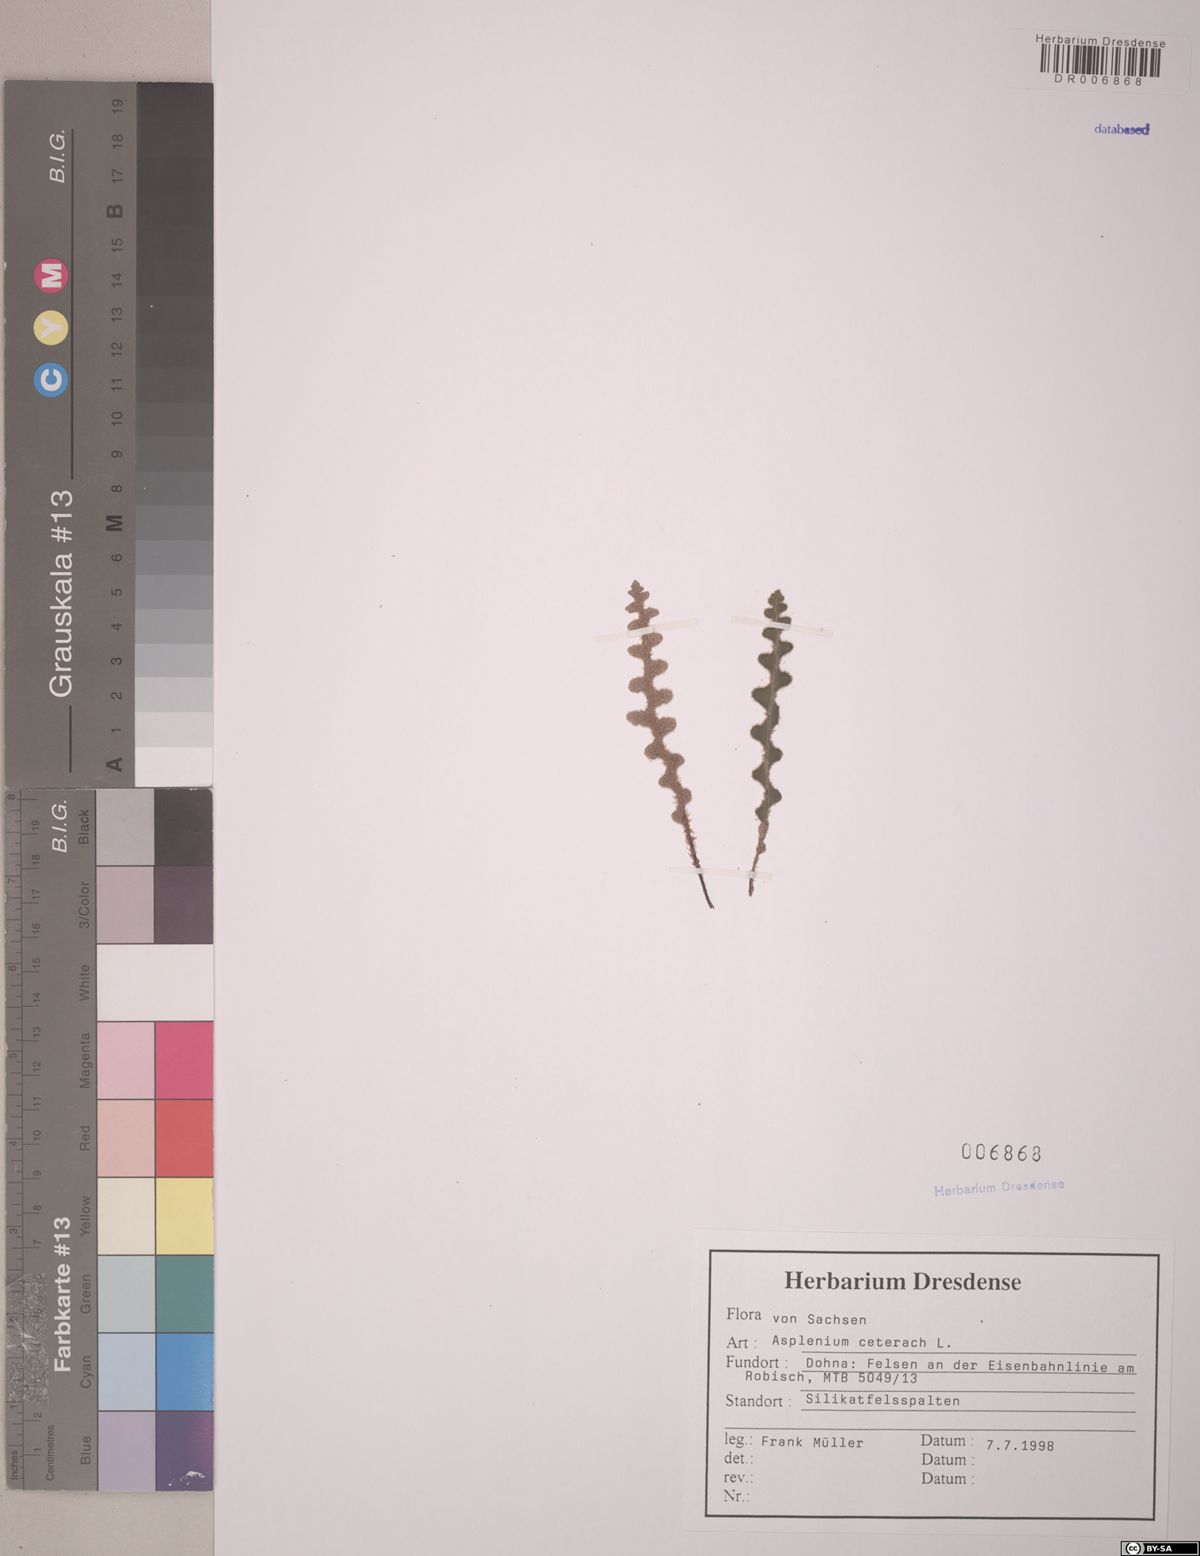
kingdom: Plantae
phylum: Tracheophyta
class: Polypodiopsida
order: Polypodiales
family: Aspleniaceae
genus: Asplenium
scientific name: Asplenium ceterach
